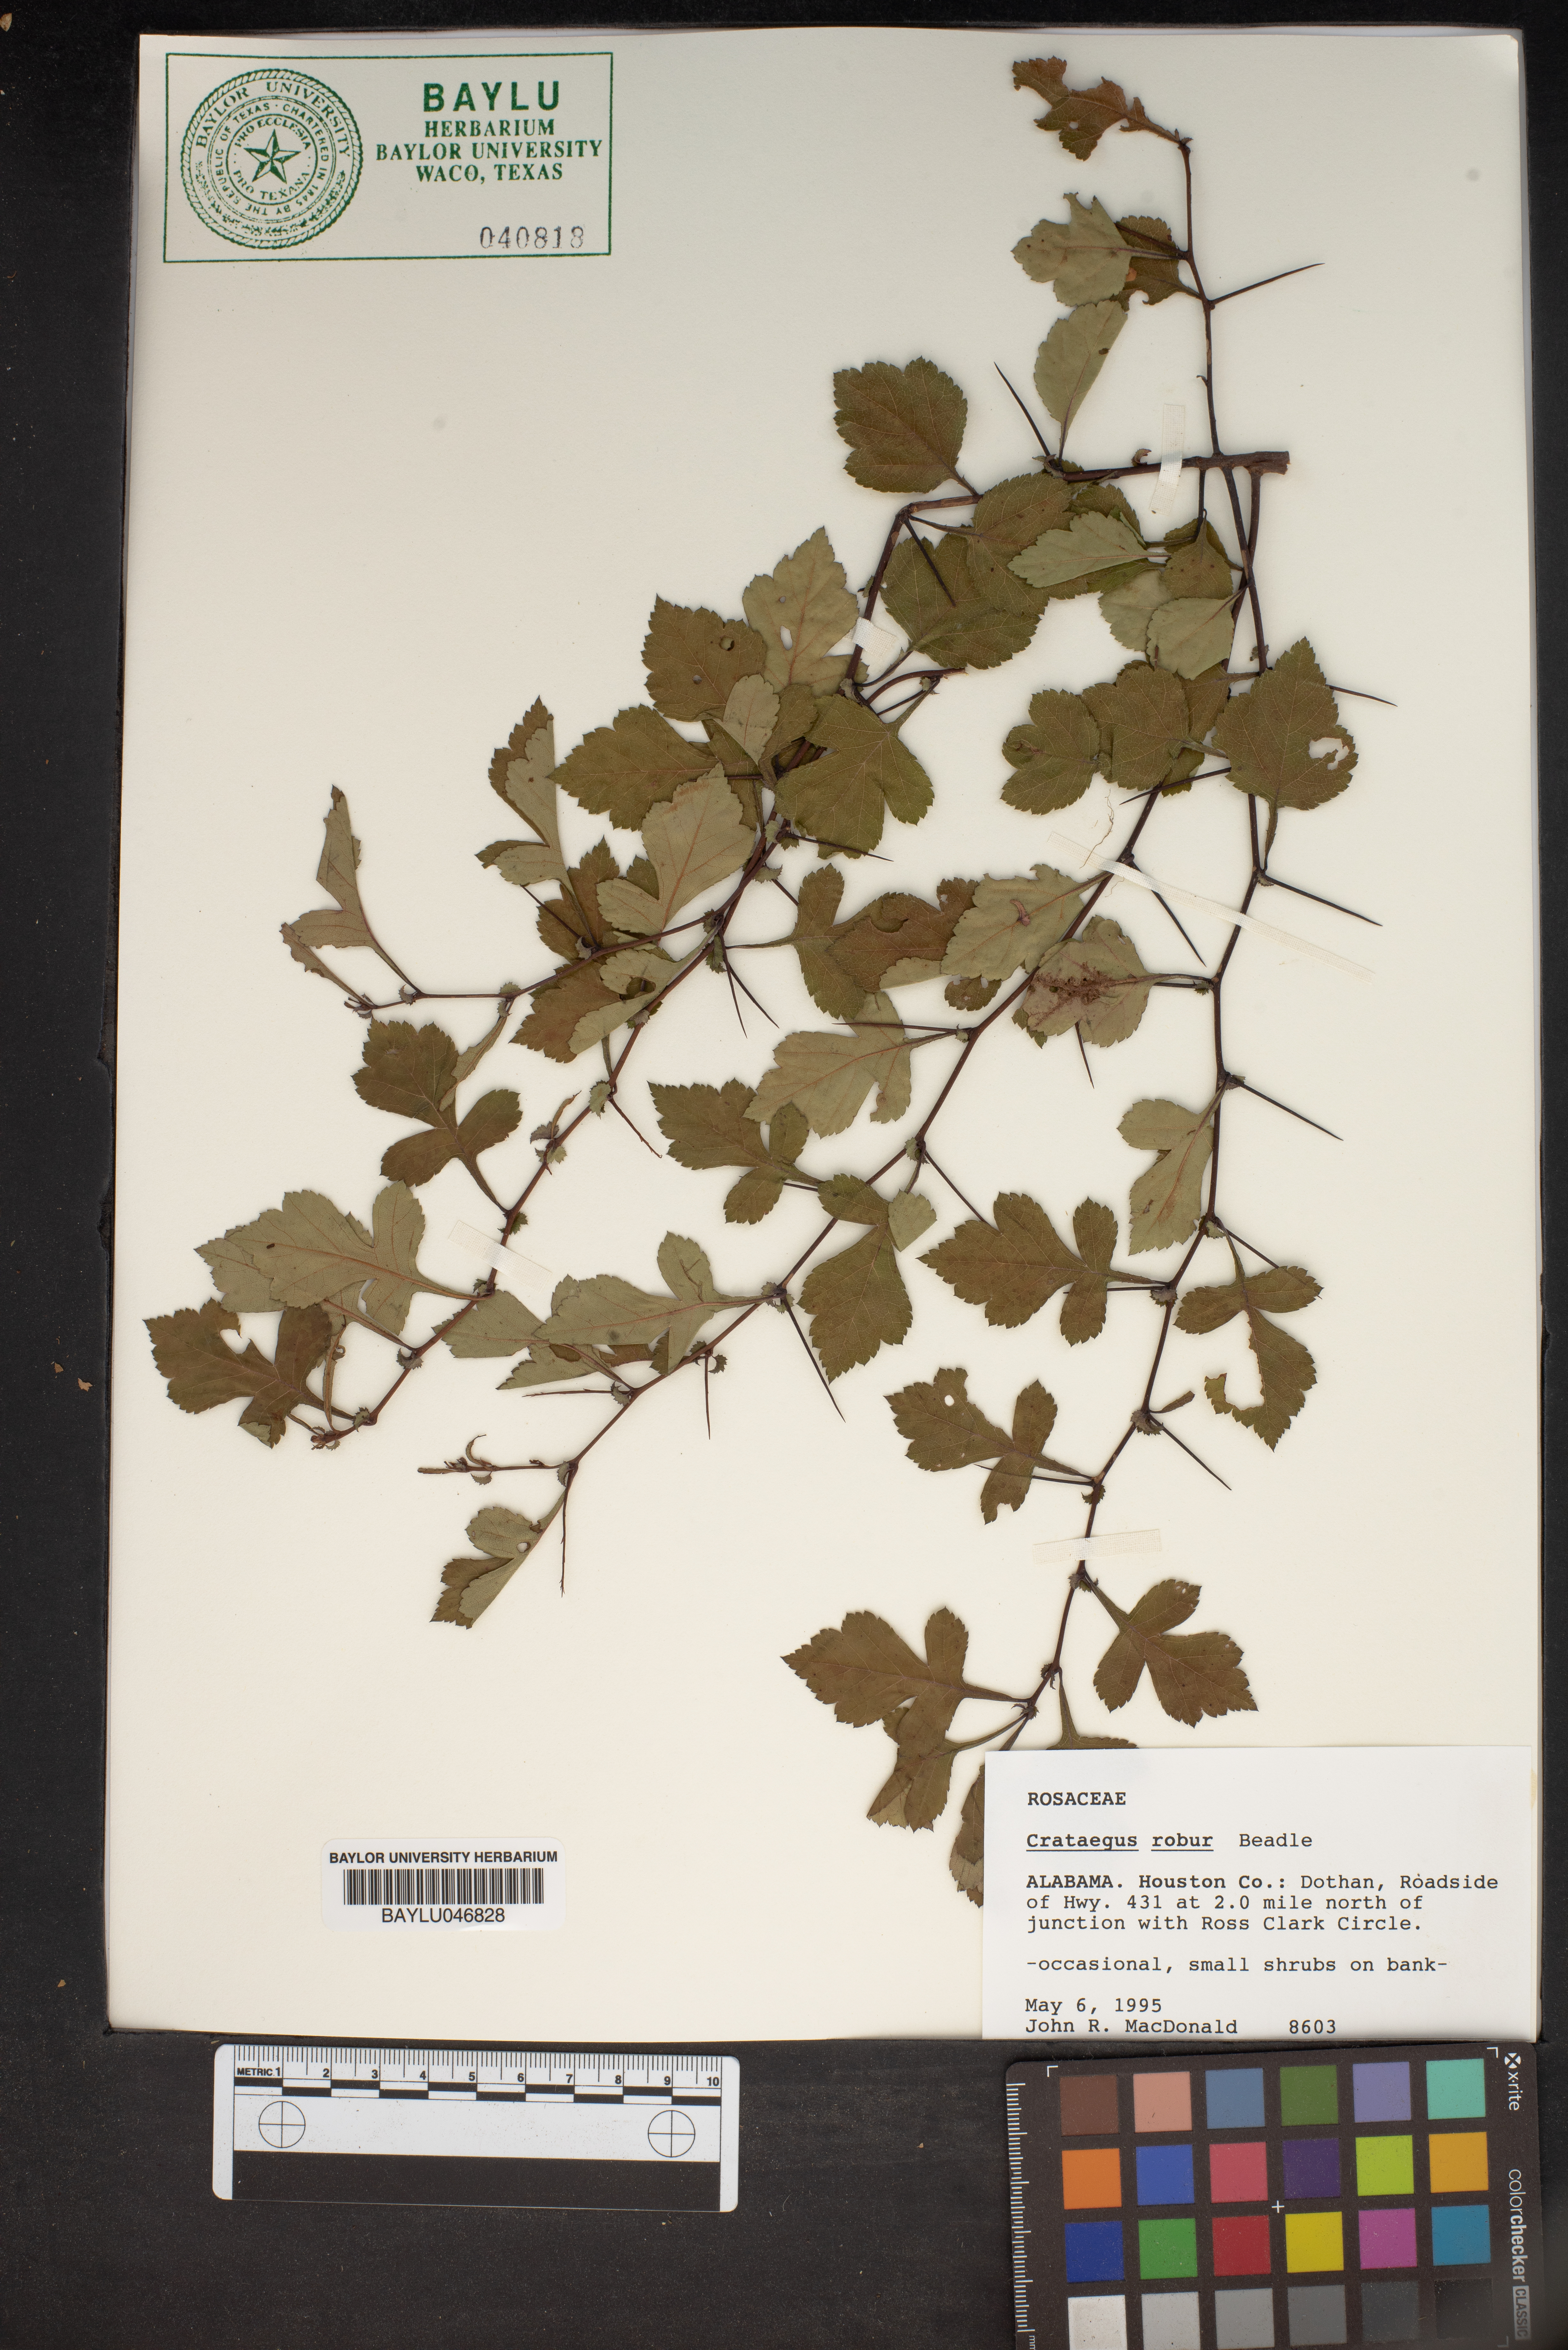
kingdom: Plantae
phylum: Tracheophyta
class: Magnoliopsida
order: Rosales
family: Rosaceae
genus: Crataegus
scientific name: Crataegus pulcherrima
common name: Beautiful hawthorn
